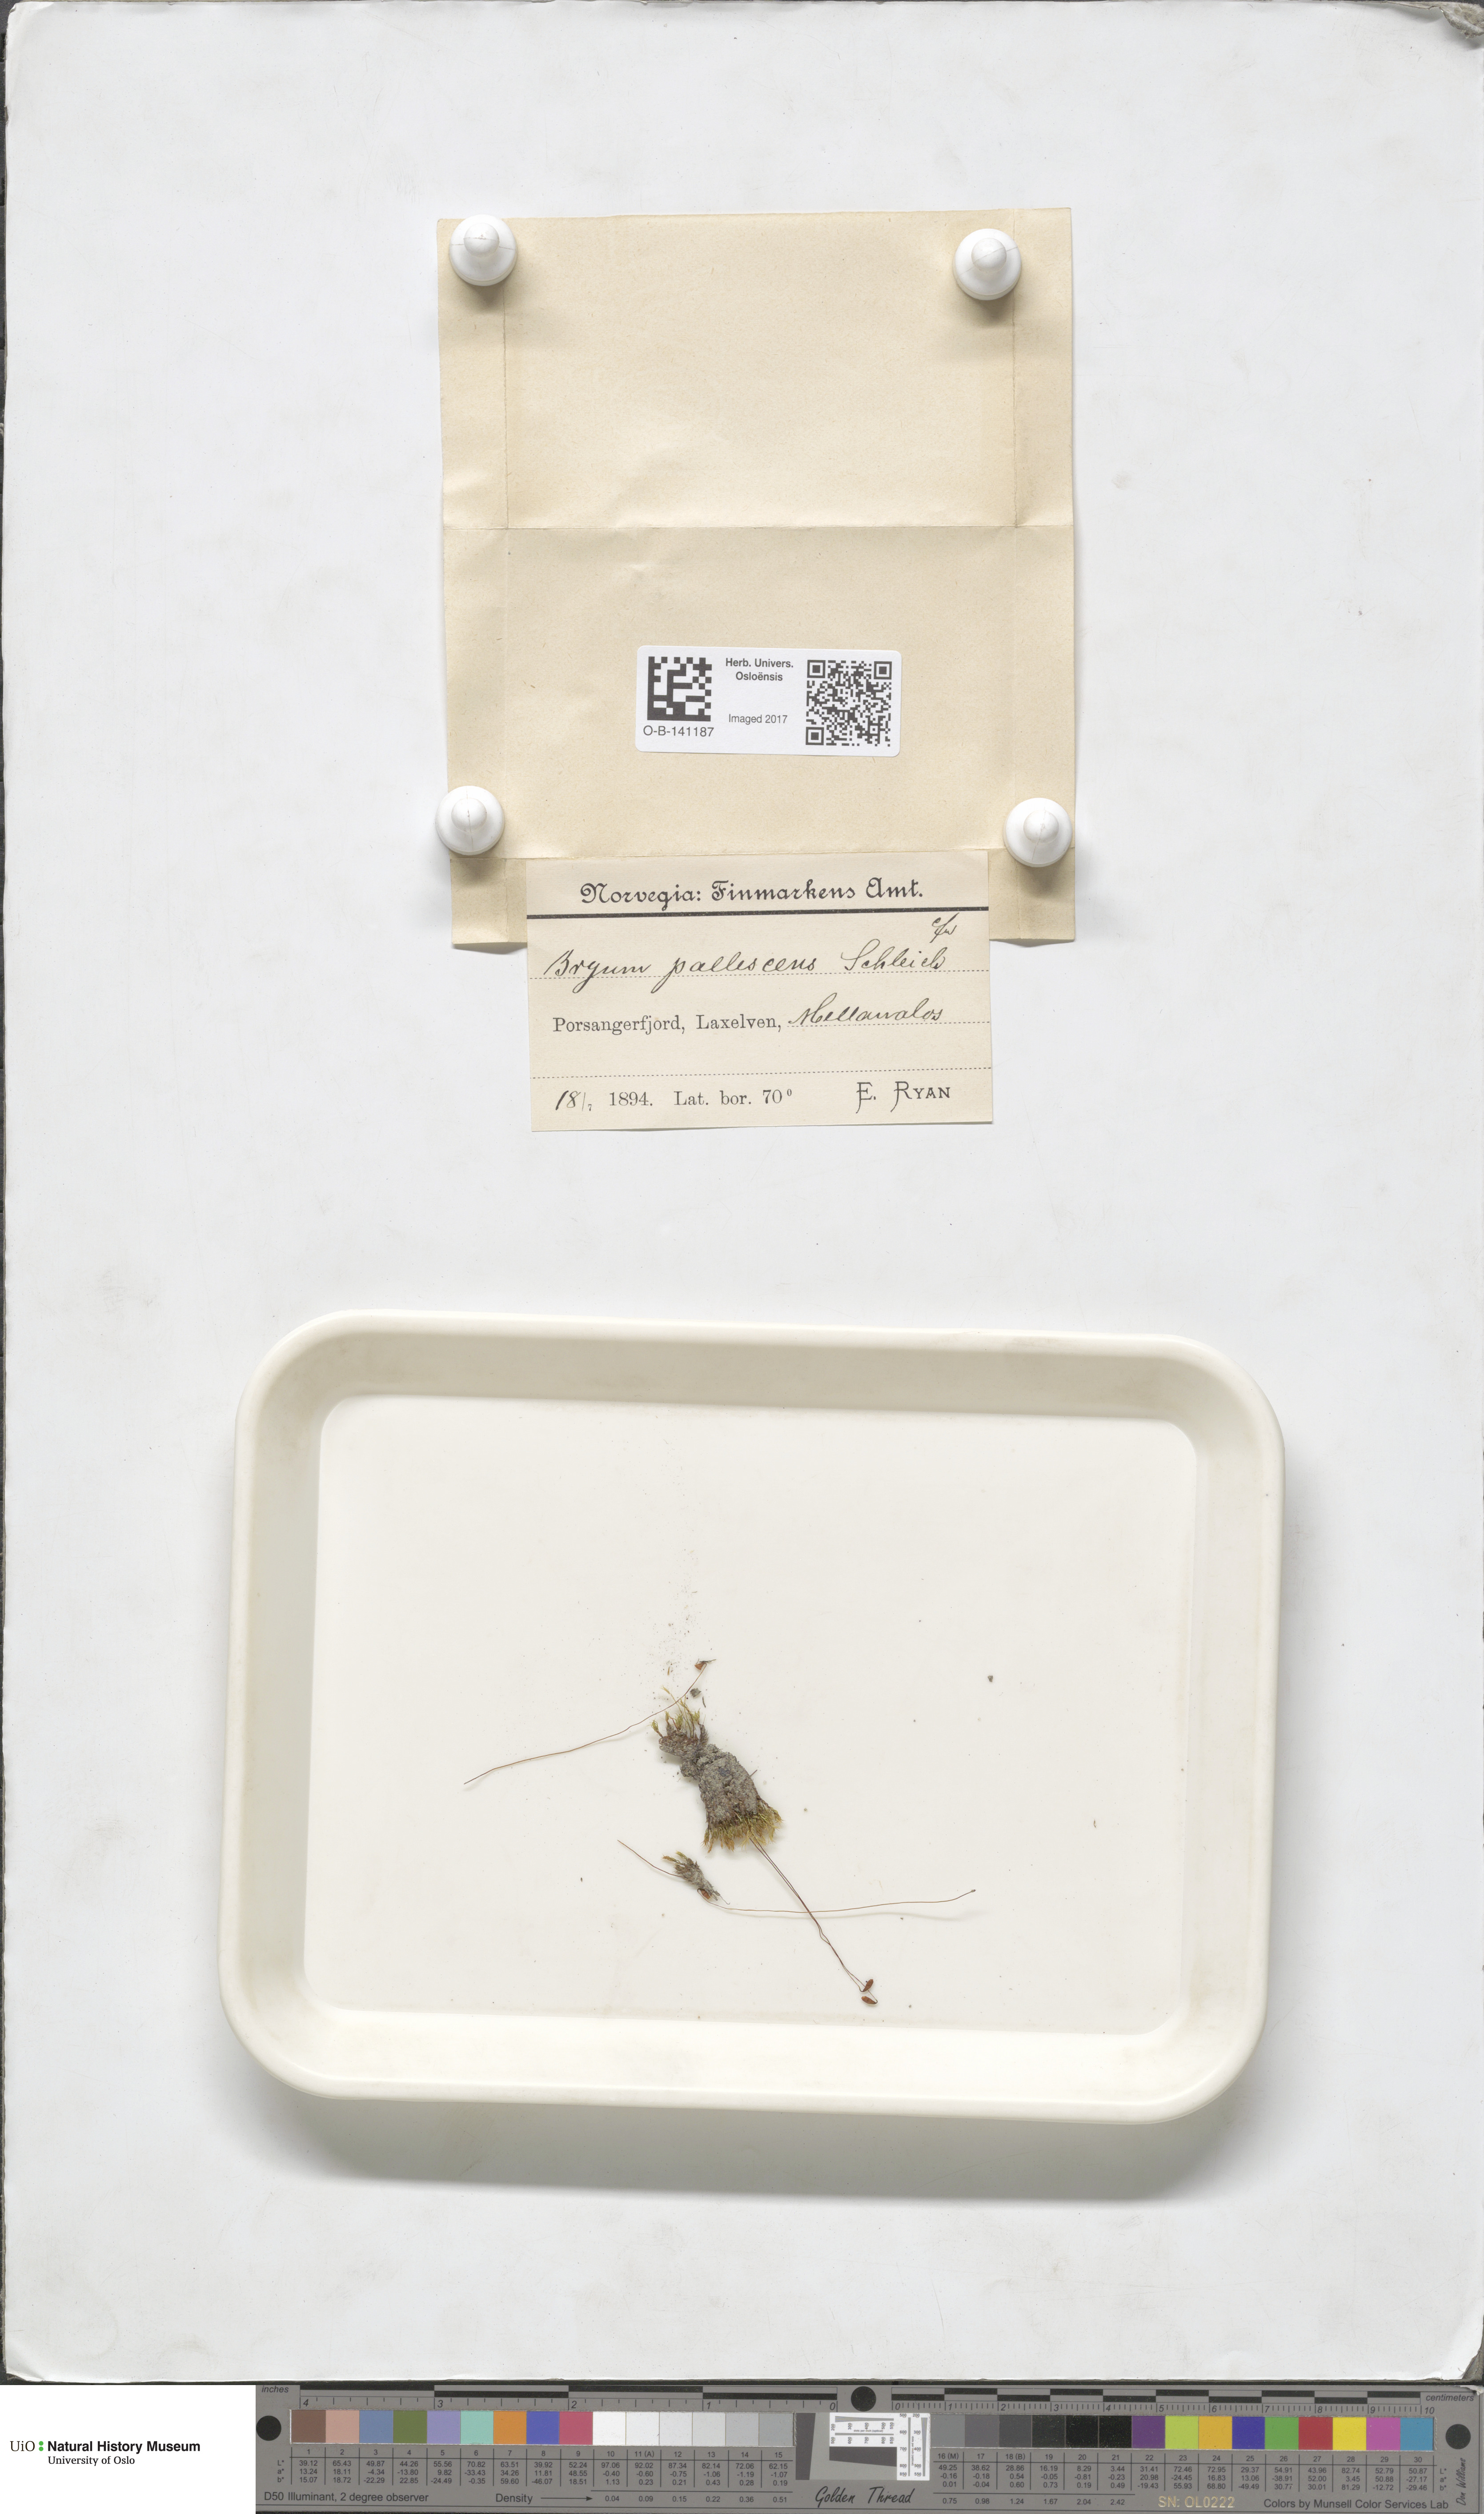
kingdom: Plantae
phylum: Bryophyta
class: Bryopsida
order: Bryales
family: Bryaceae
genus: Ptychostomum
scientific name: Ptychostomum pallens
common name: Pale thread-moss
